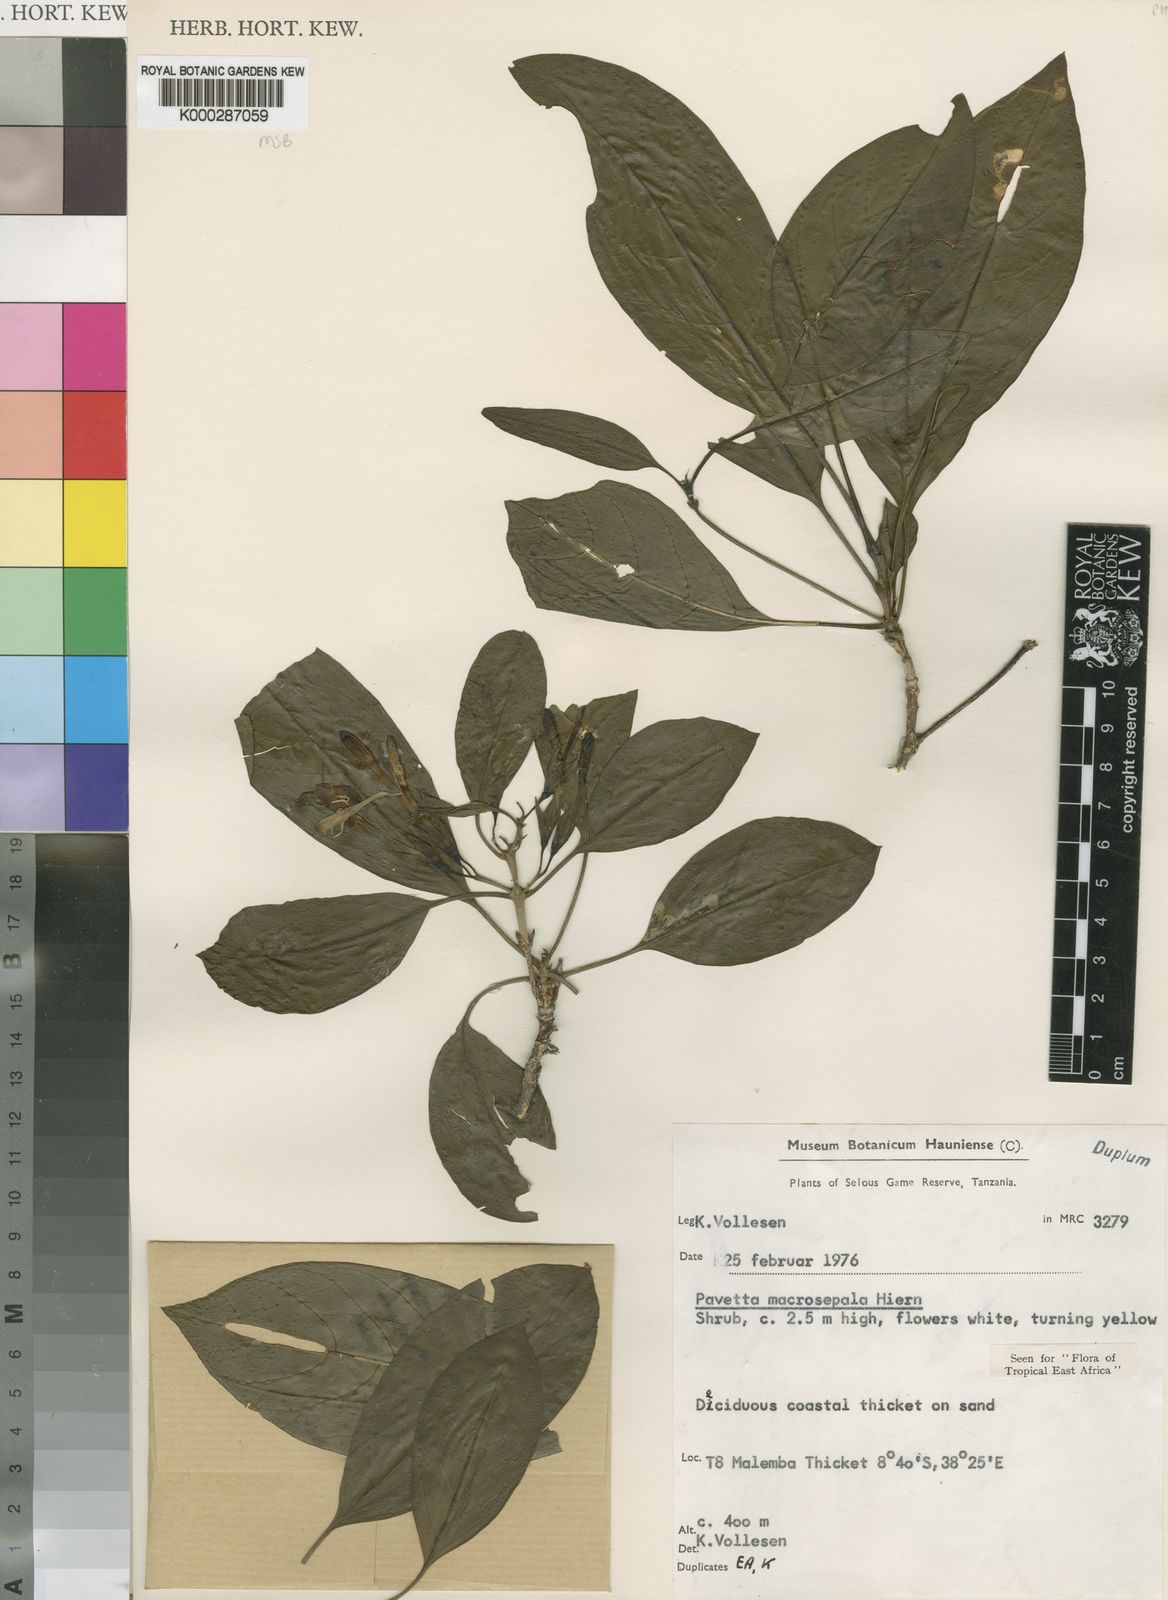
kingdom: Plantae
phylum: Tracheophyta
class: Magnoliopsida
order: Gentianales
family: Rubiaceae
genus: Pavetta
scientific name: Pavetta macrosepala
